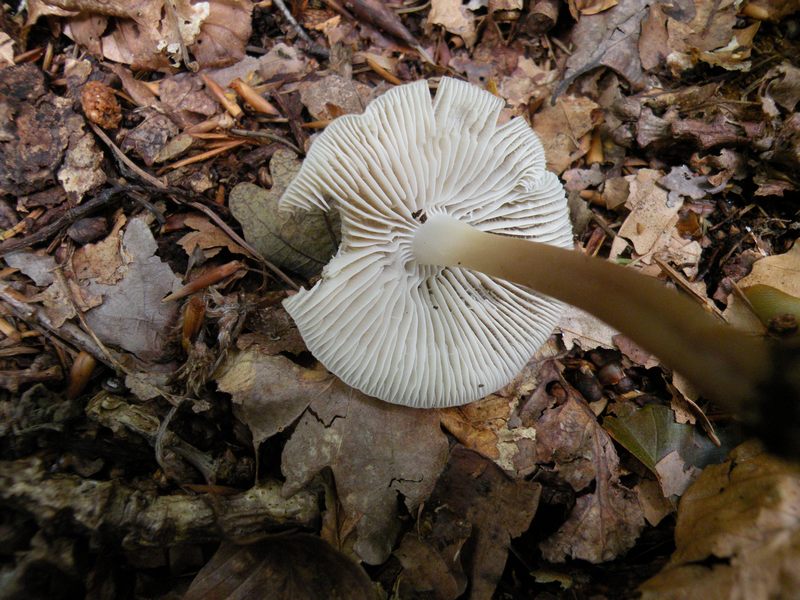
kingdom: Fungi
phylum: Basidiomycota
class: Agaricomycetes
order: Agaricales
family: Mycenaceae
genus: Mycena
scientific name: Mycena galericulata
